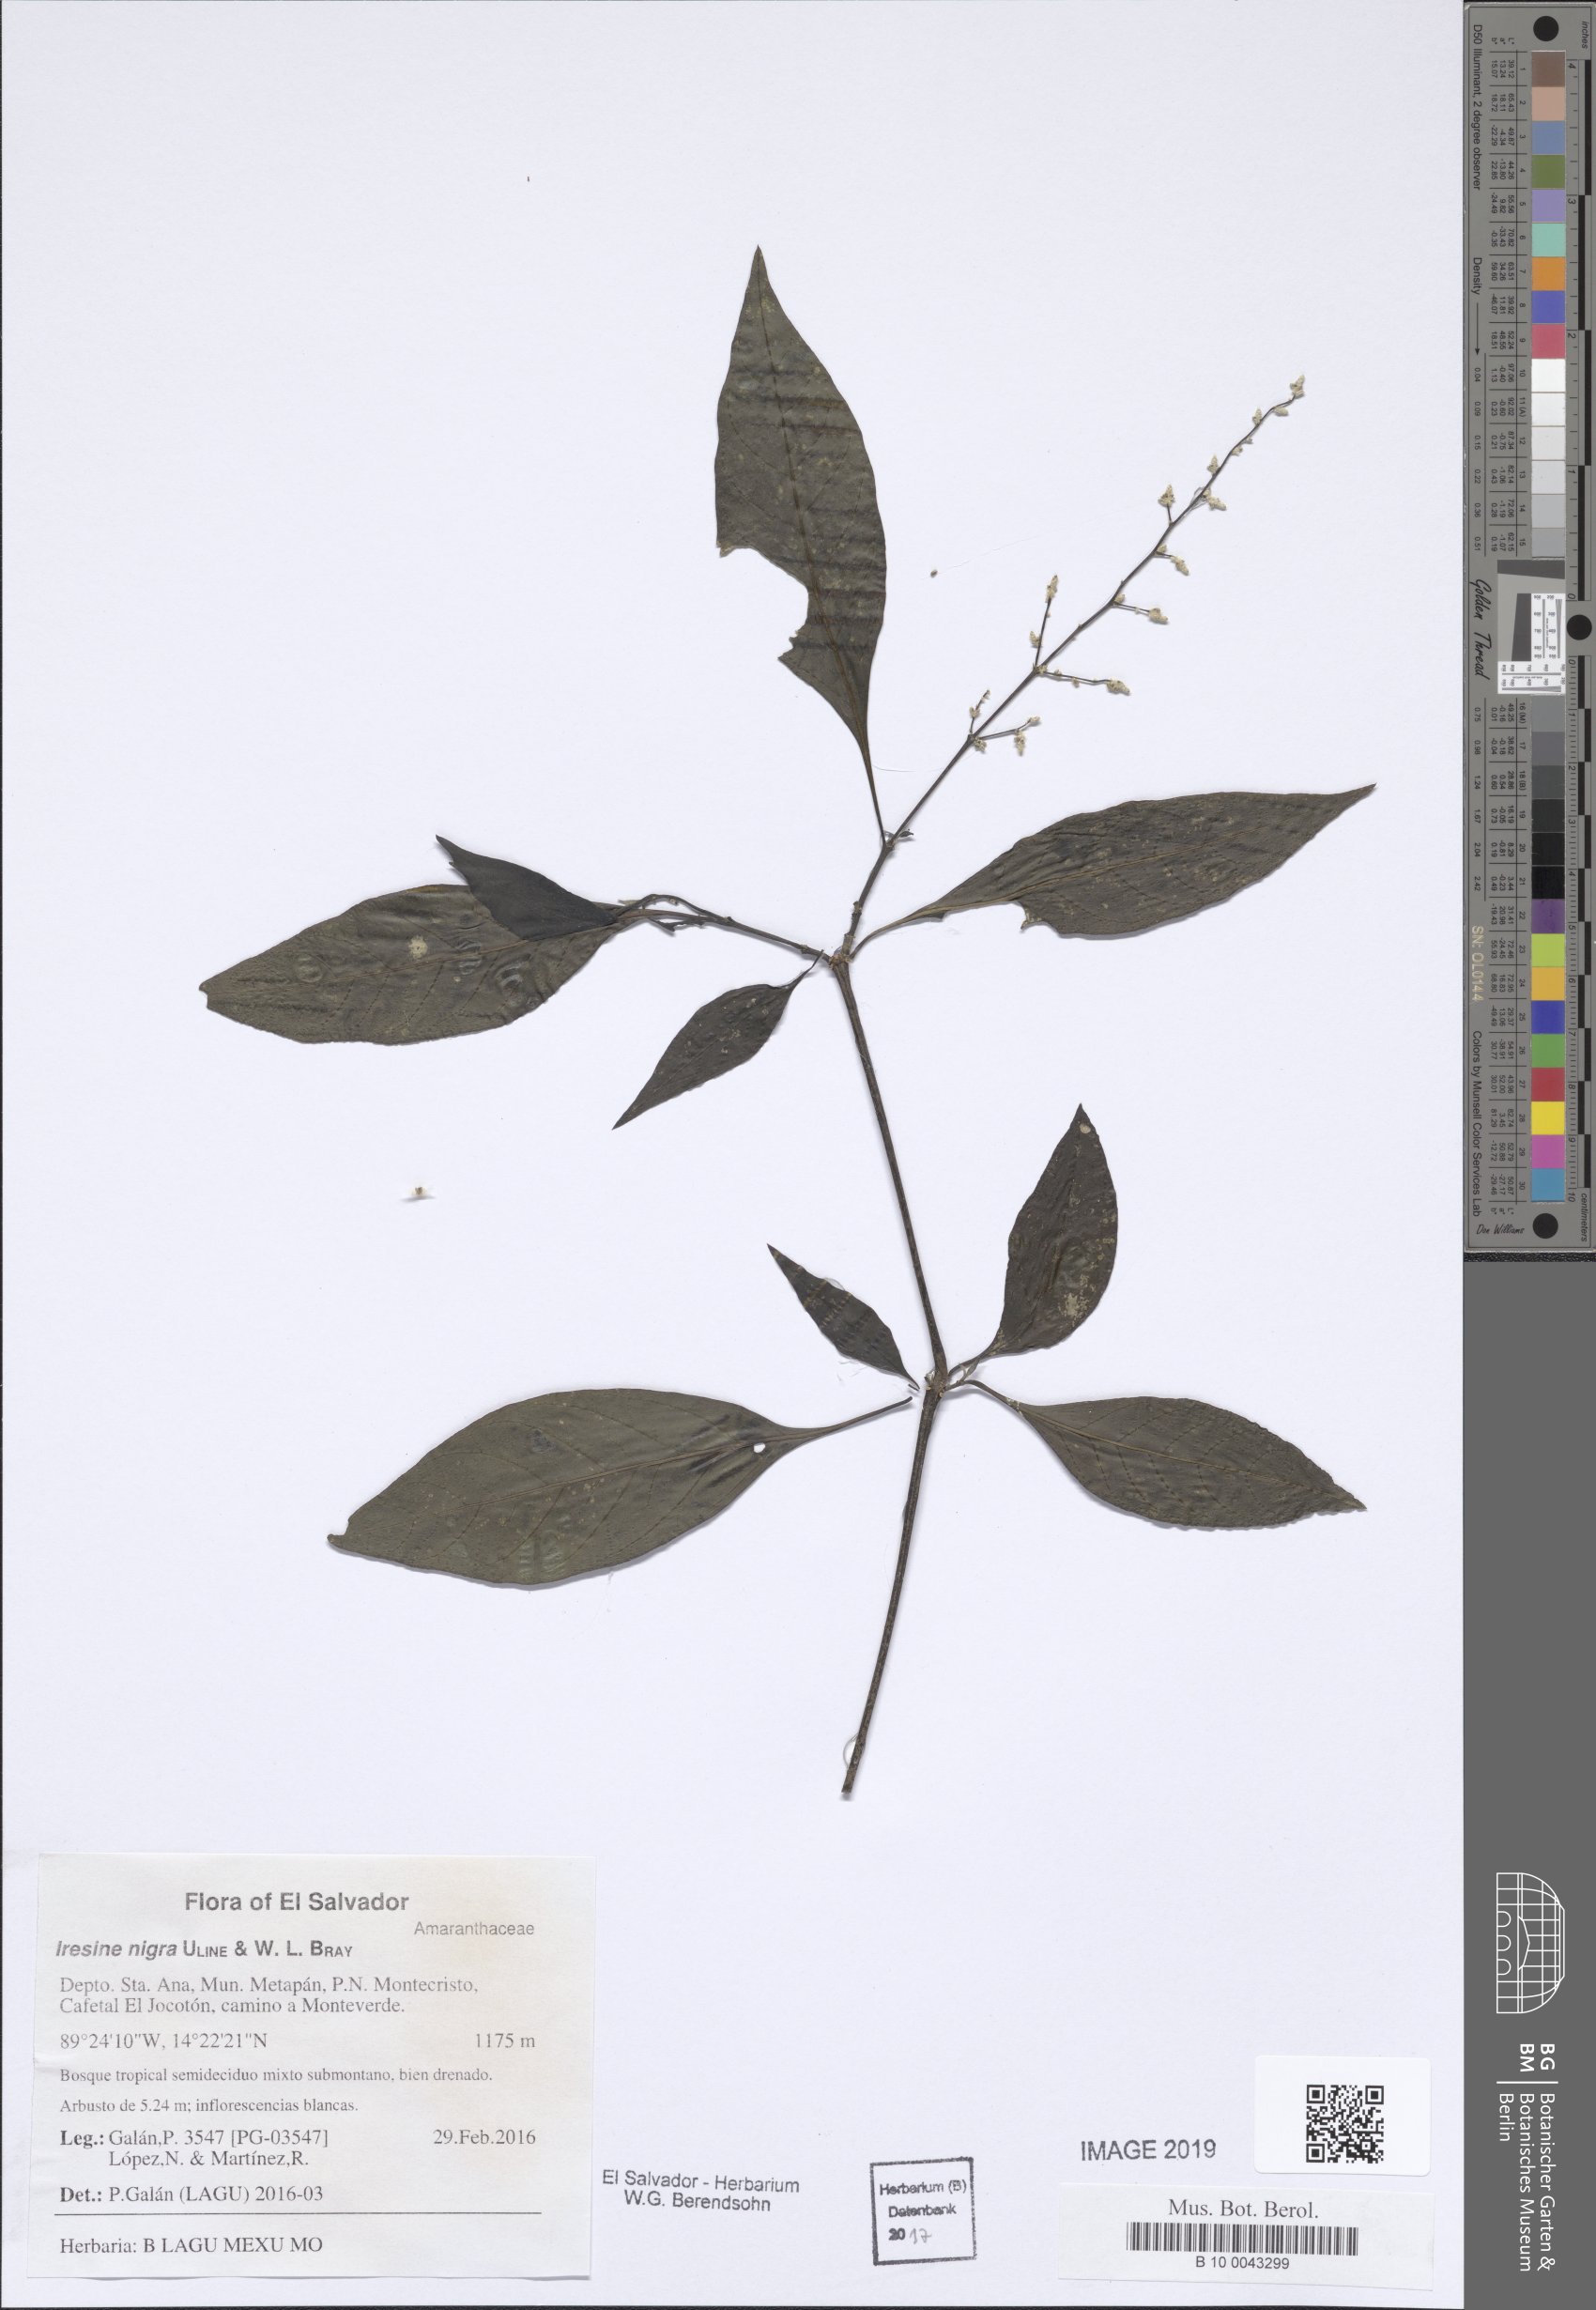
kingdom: Plantae
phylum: Tracheophyta
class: Magnoliopsida
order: Caryophyllales
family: Amaranthaceae
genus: Iresine
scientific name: Iresine nigra
